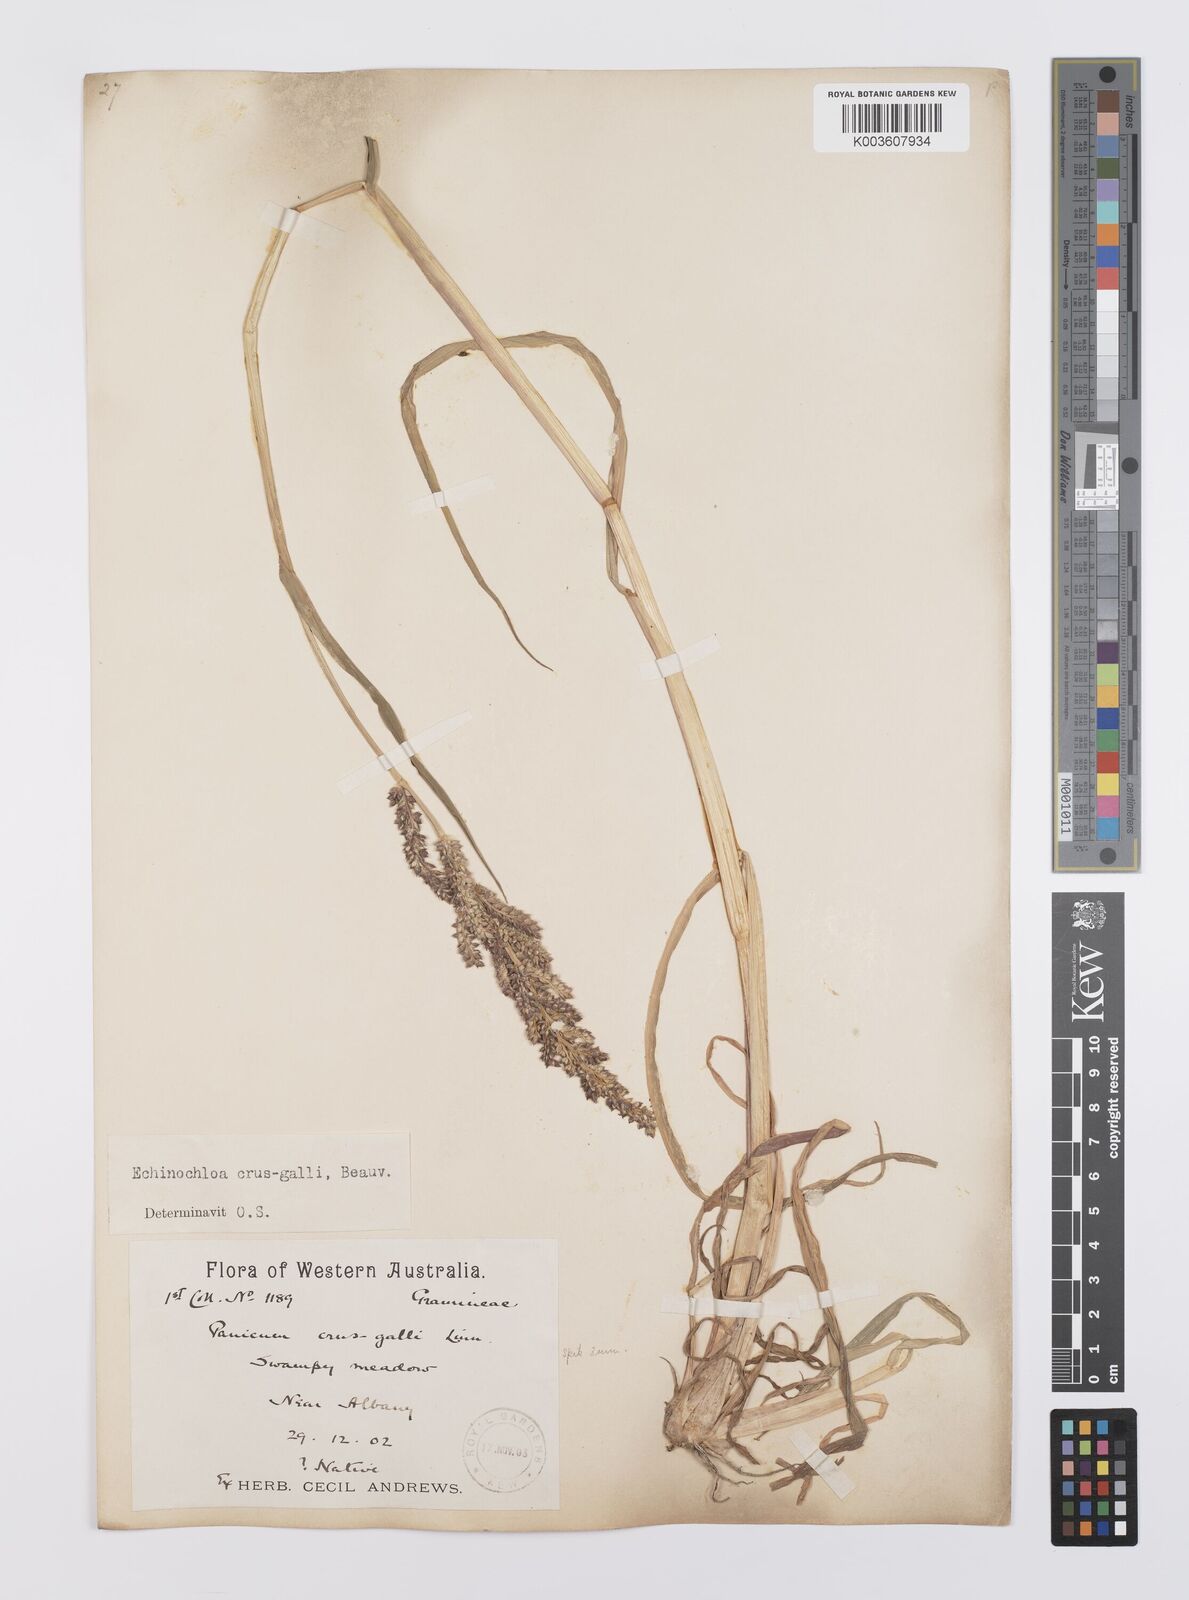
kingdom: Plantae
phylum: Tracheophyta
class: Liliopsida
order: Poales
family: Poaceae
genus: Echinochloa
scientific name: Echinochloa crus-galli
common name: Cockspur
